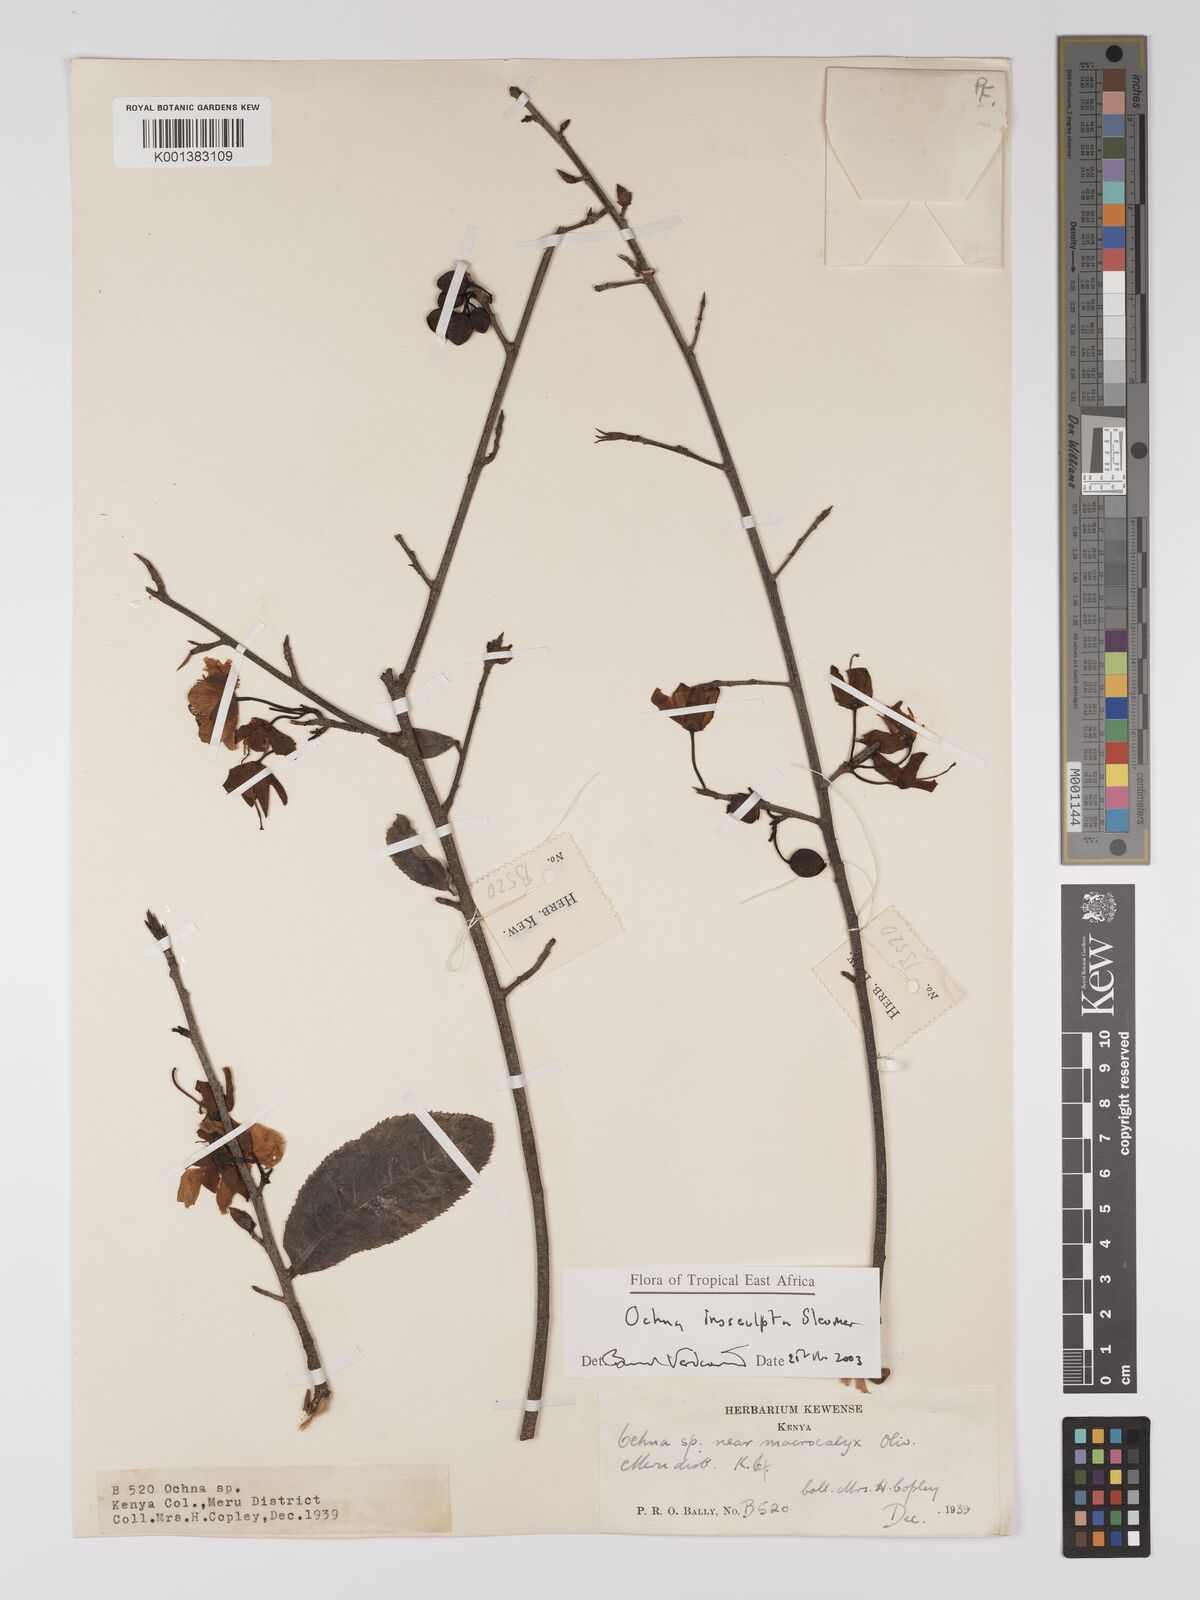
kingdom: Plantae
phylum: Tracheophyta
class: Magnoliopsida
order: Malpighiales
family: Ochnaceae
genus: Ochna
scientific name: Ochna insculpta
